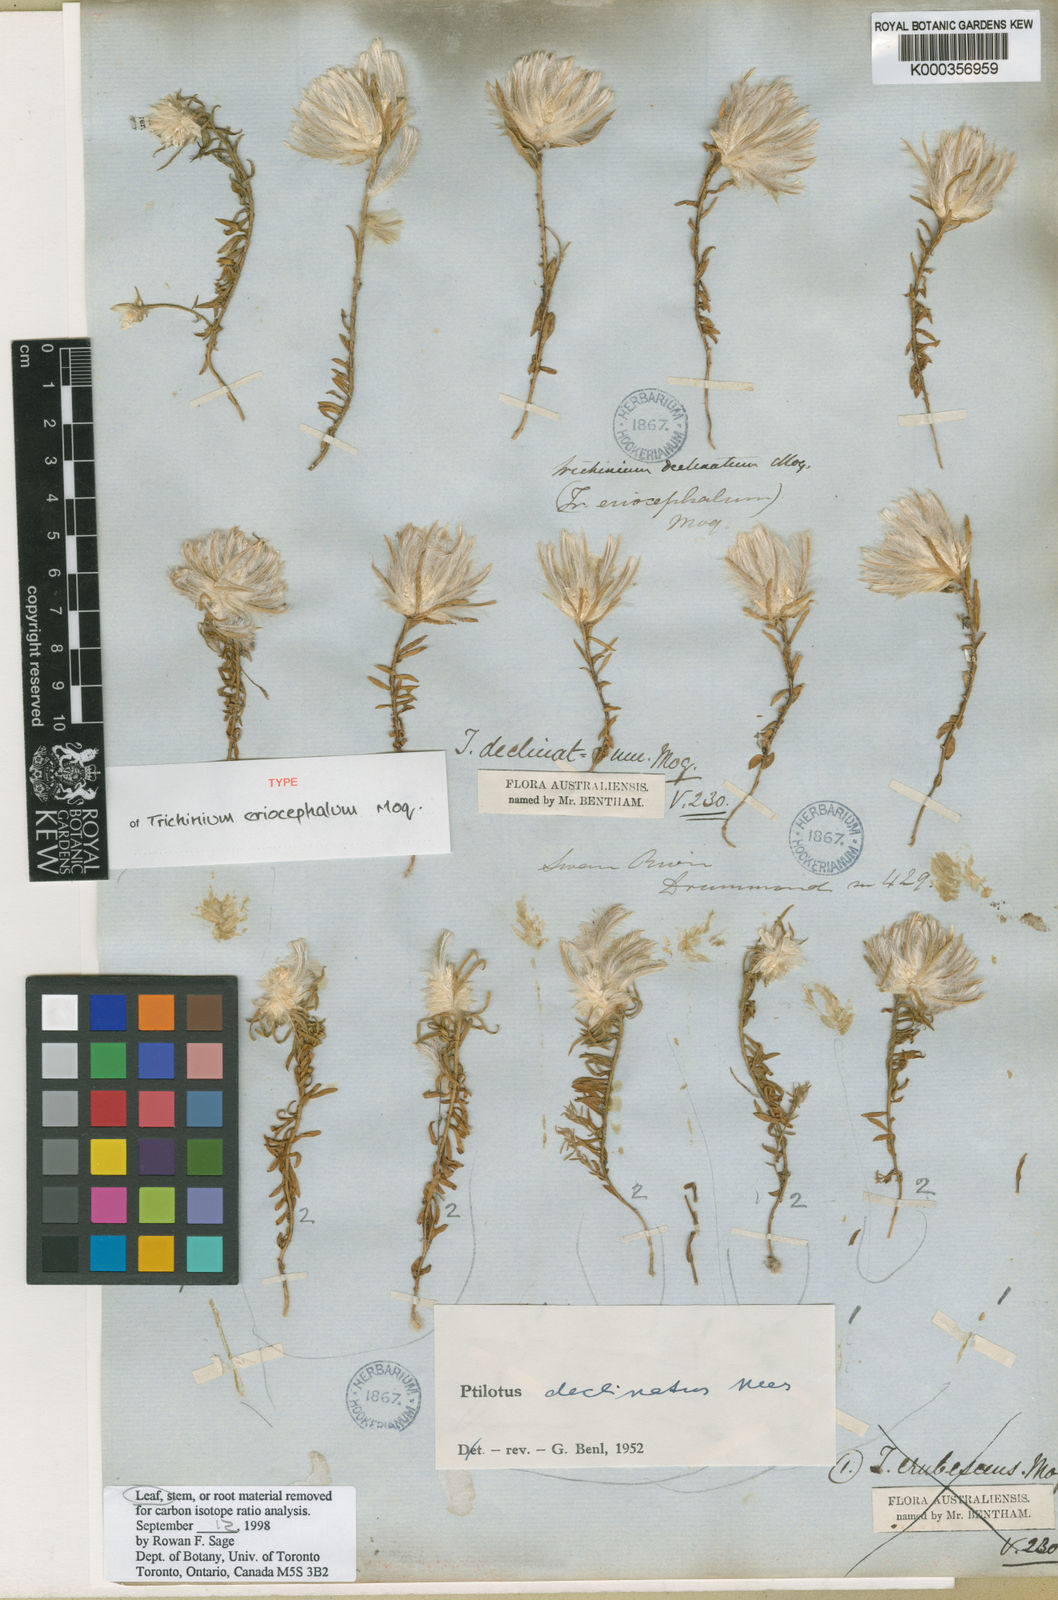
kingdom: Plantae
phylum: Tracheophyta
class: Magnoliopsida
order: Caryophyllales
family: Amaranthaceae
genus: Ptilotus
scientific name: Ptilotus declinatus
